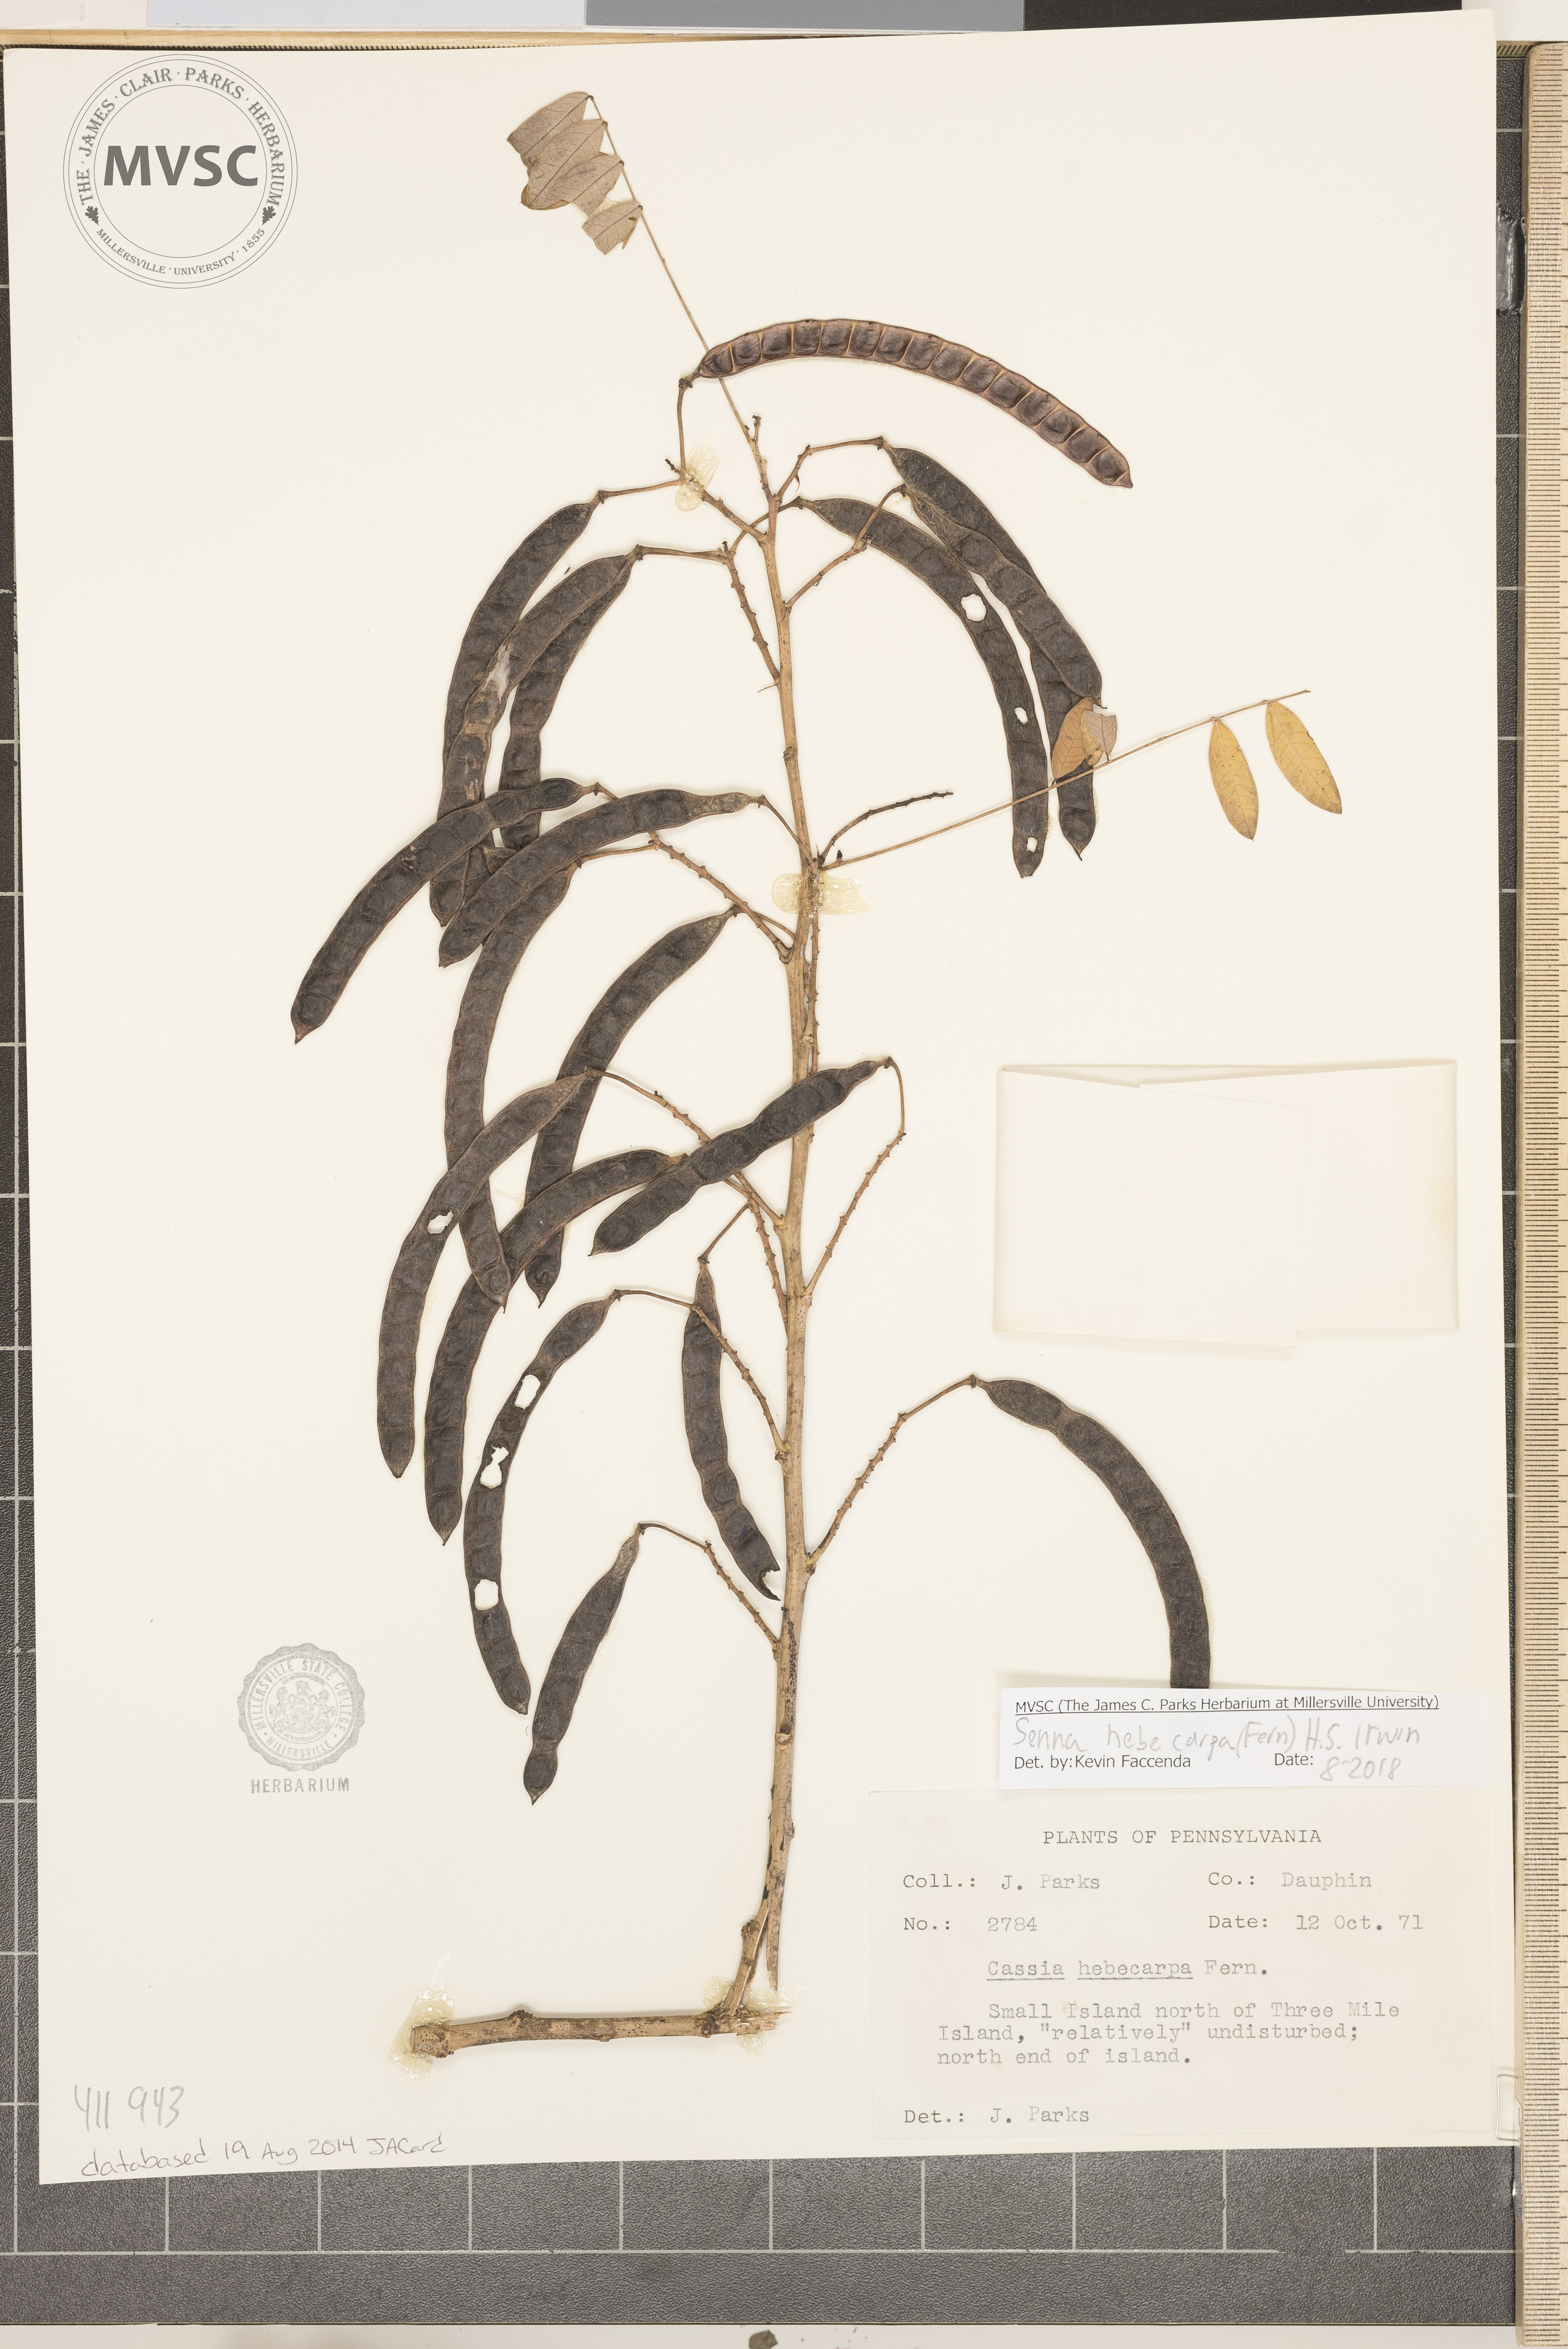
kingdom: Plantae
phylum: Tracheophyta
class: Magnoliopsida
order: Fabales
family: Fabaceae
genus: Senna
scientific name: Senna hebecarpa
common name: Wild senna
